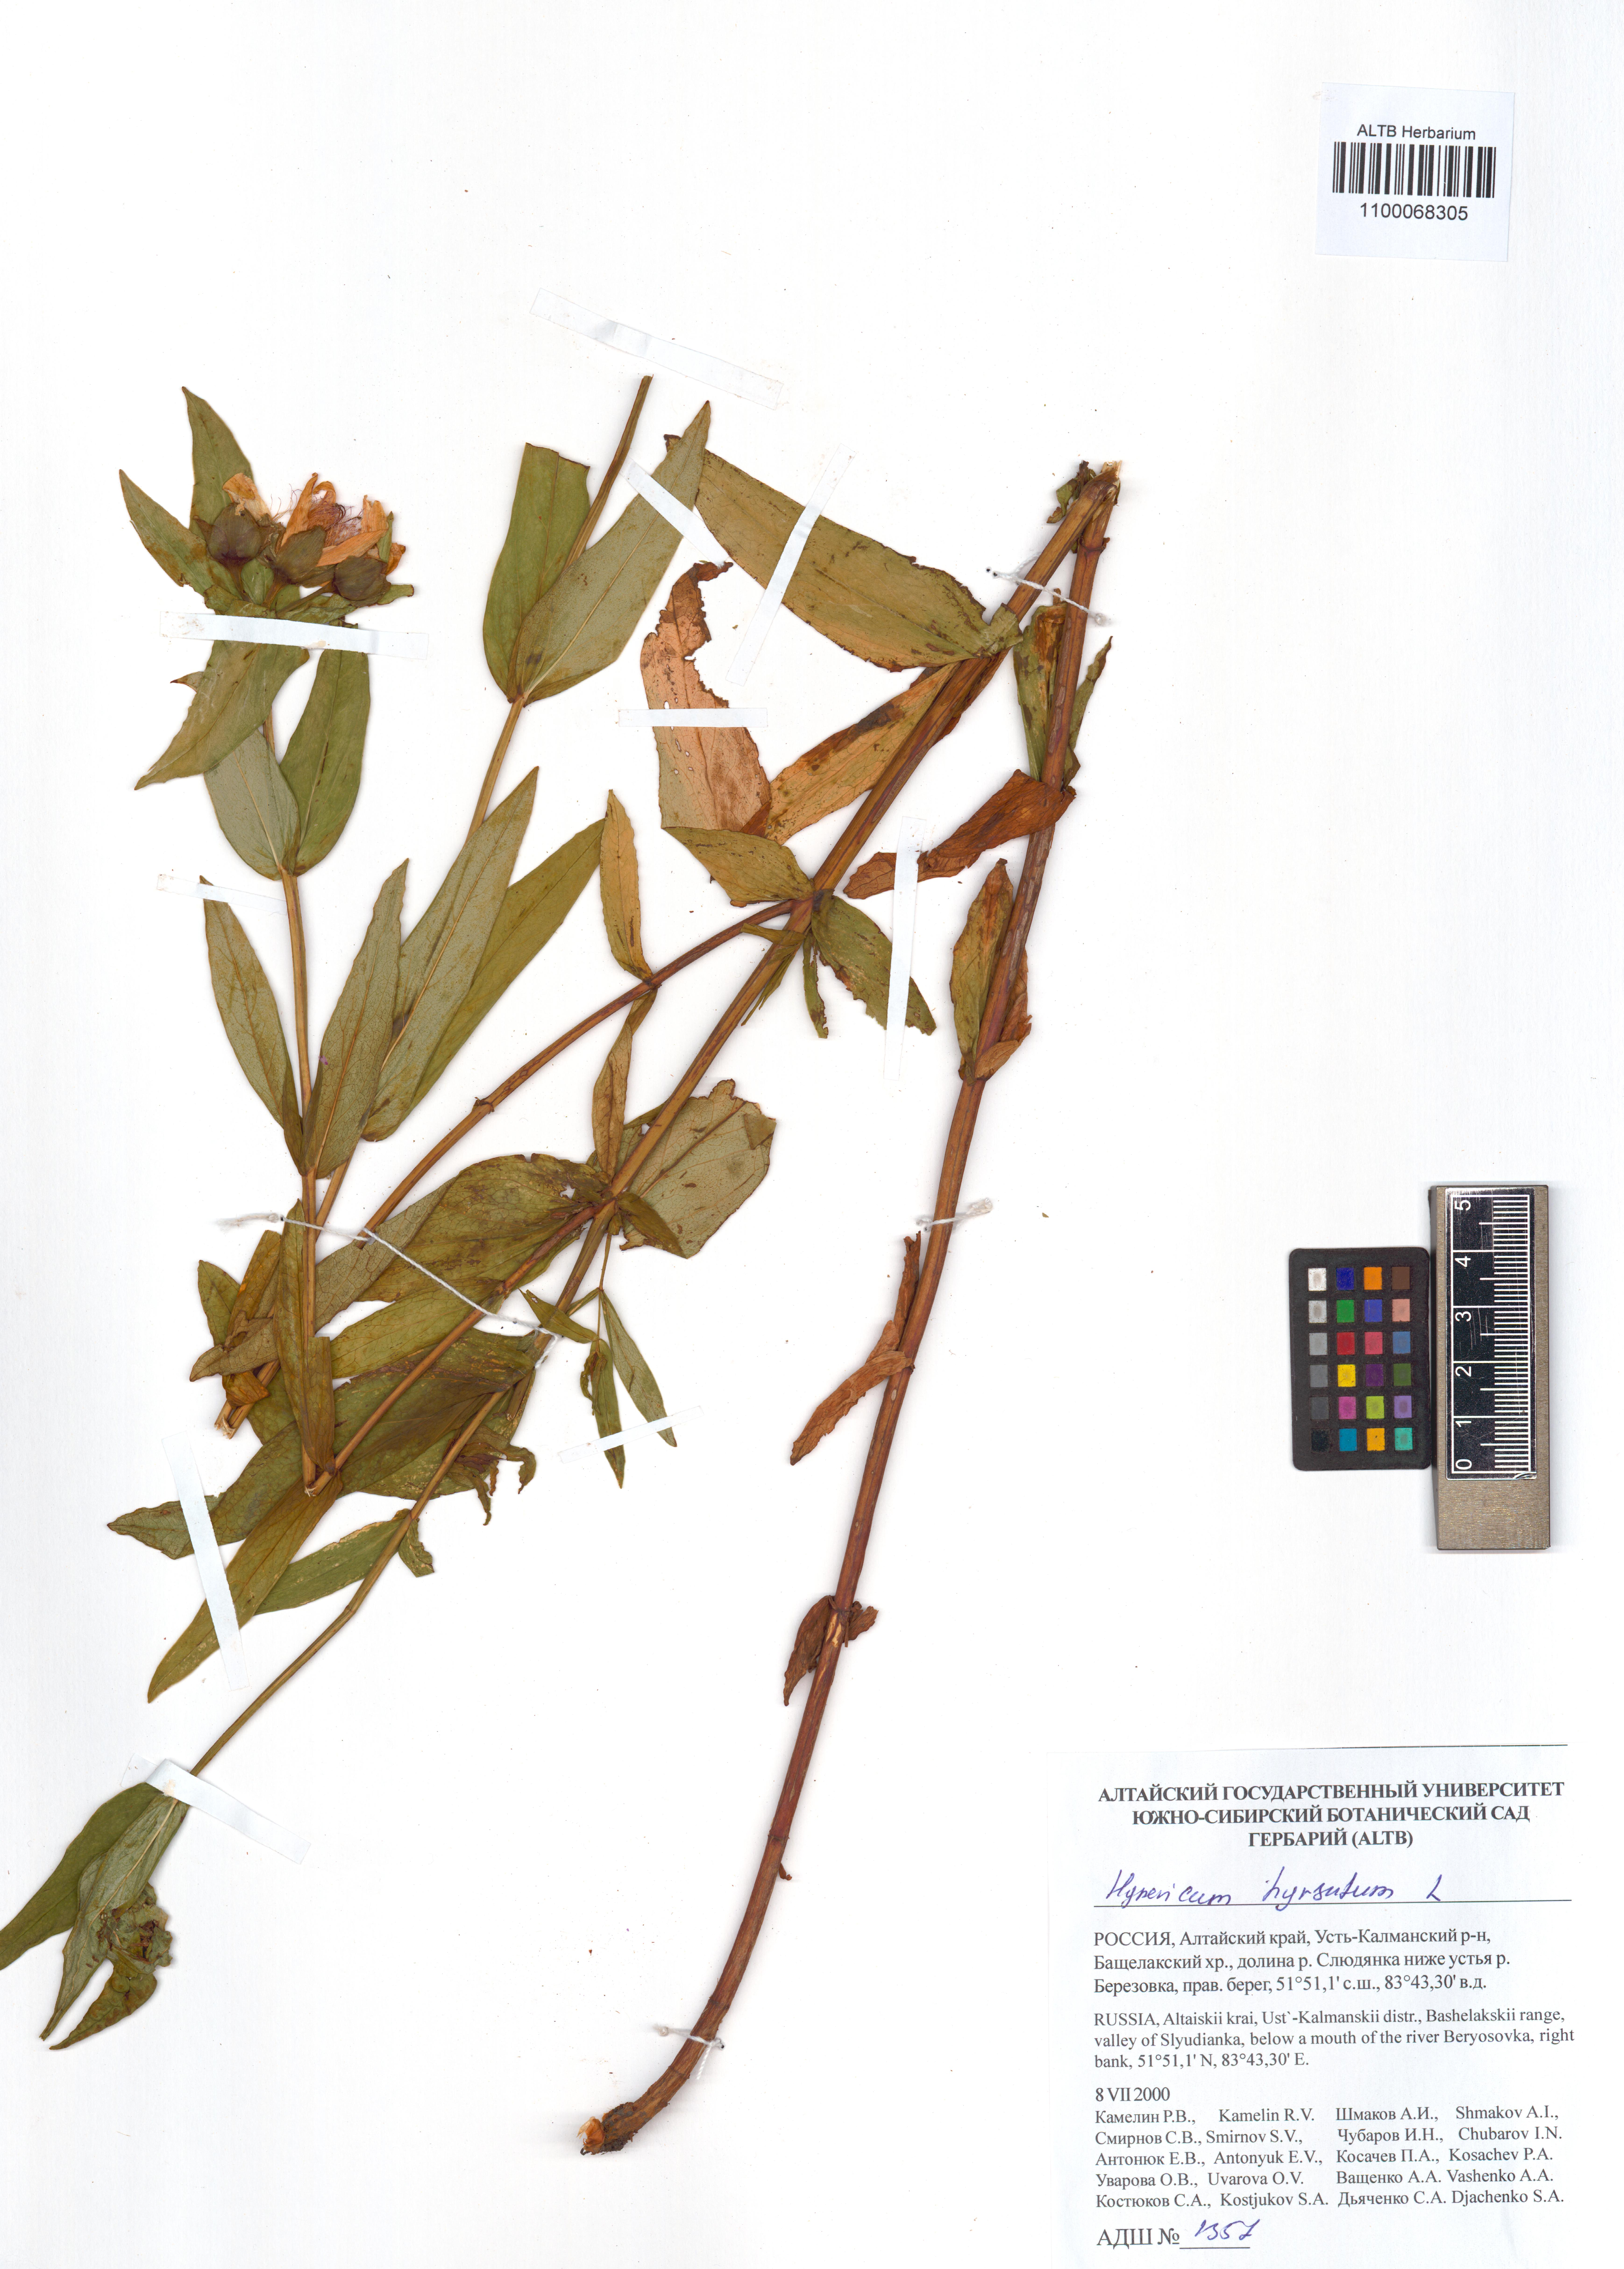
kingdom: Plantae
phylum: Tracheophyta
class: Magnoliopsida
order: Malpighiales
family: Hypericaceae
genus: Hypericum
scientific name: Hypericum hirsutum
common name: Hairy st. john's-wort
